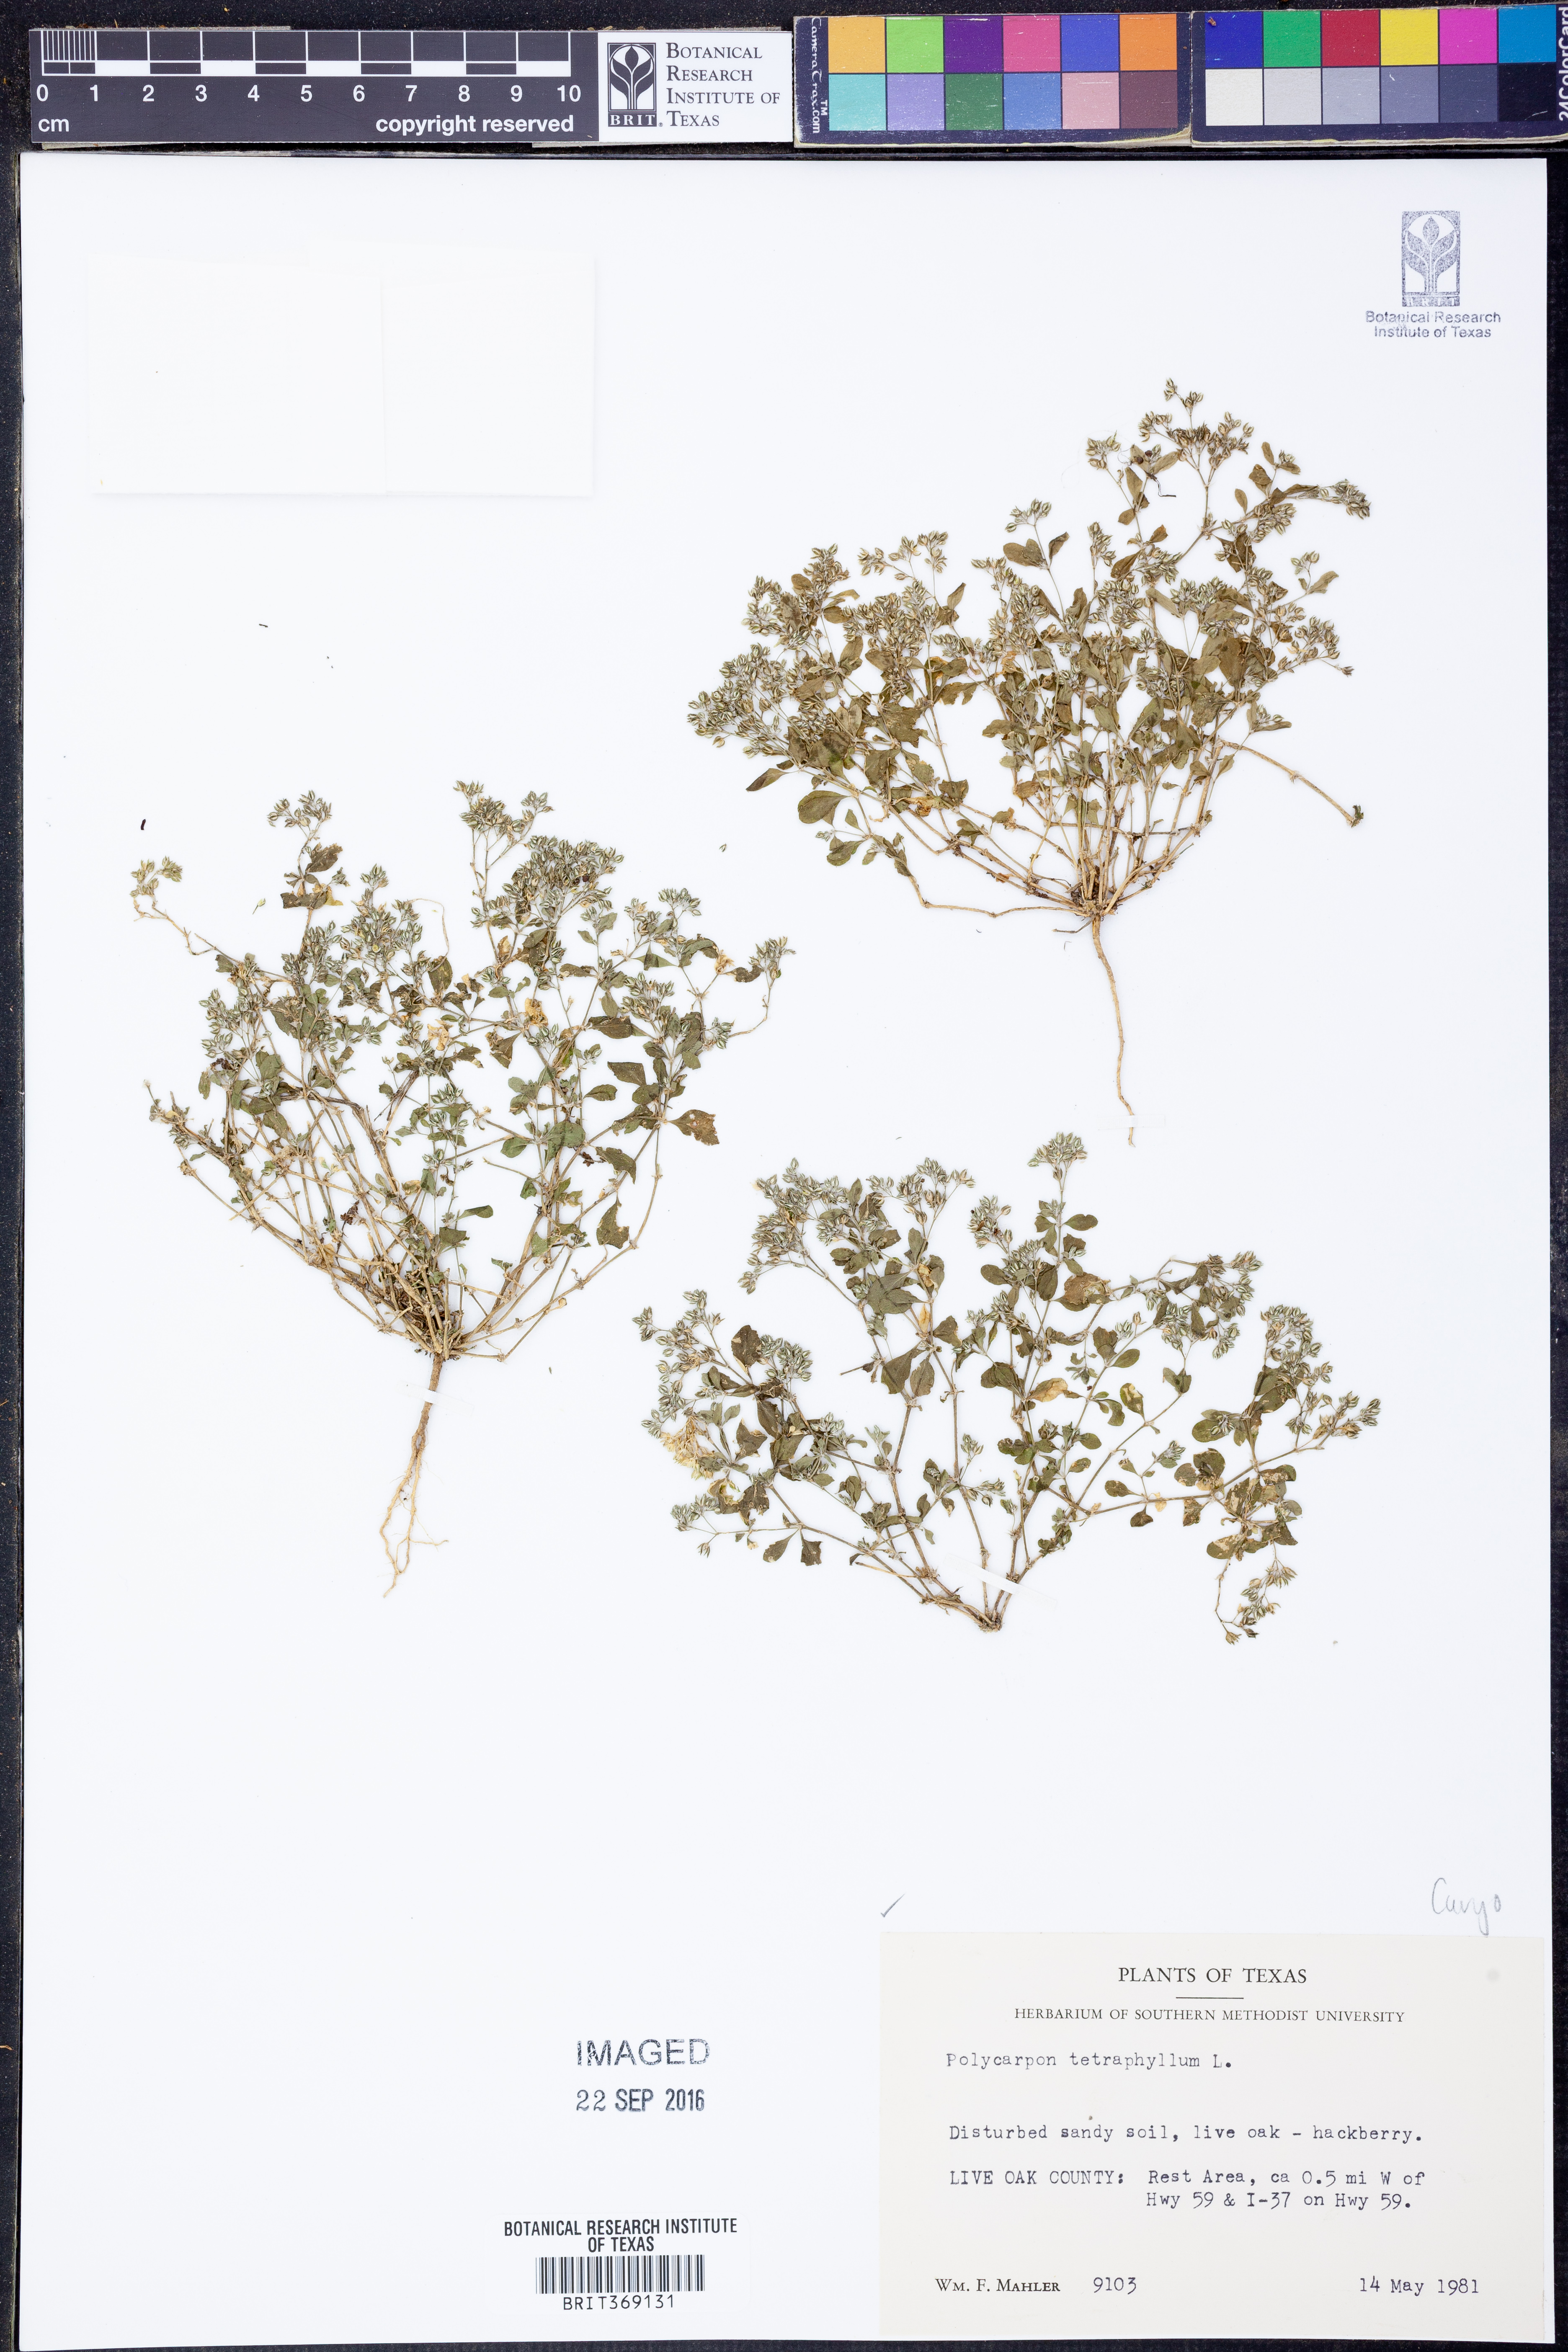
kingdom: Plantae
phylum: Tracheophyta
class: Magnoliopsida
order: Caryophyllales
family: Caryophyllaceae
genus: Polycarpon
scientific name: Polycarpon tetraphyllum
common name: Four-leaved all-seed
